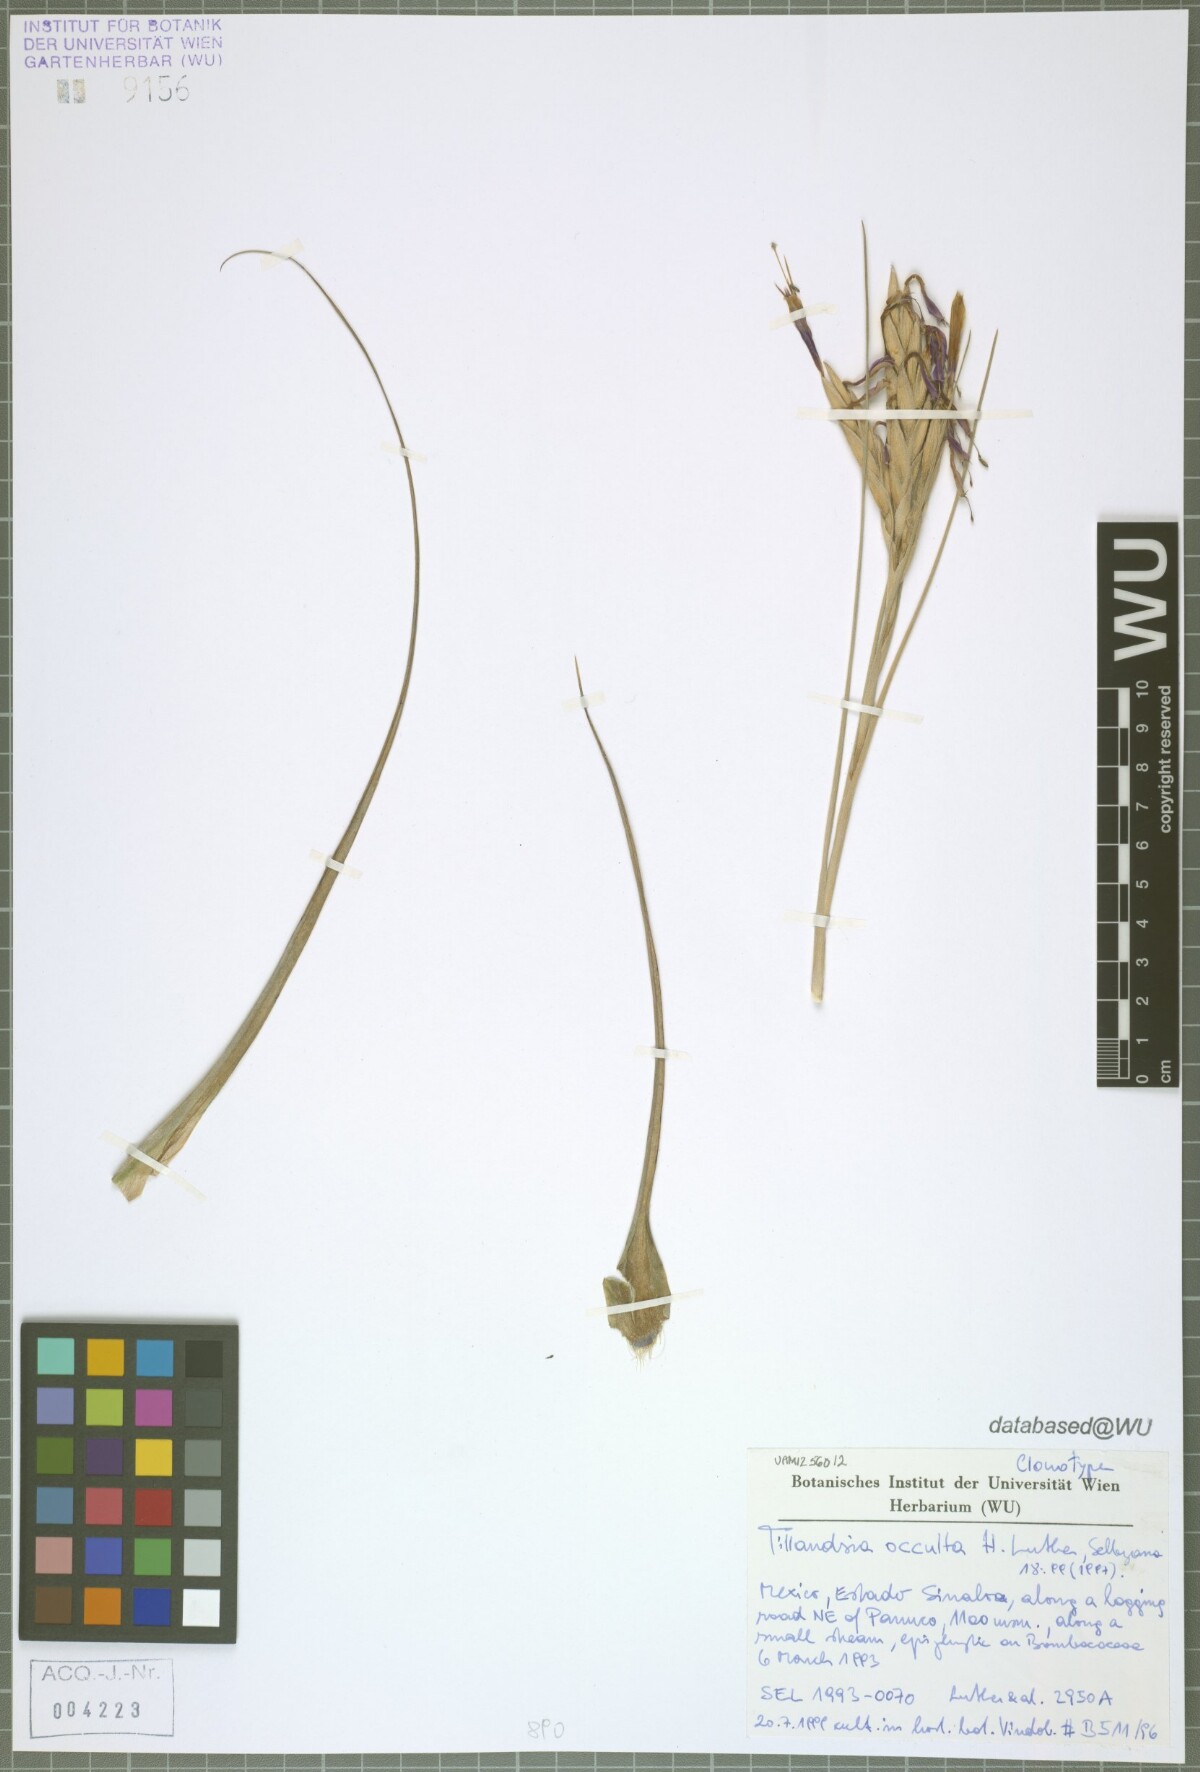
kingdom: Plantae
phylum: Tracheophyta
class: Liliopsida
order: Poales
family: Bromeliaceae
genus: Tillandsia
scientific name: Tillandsia occulta
